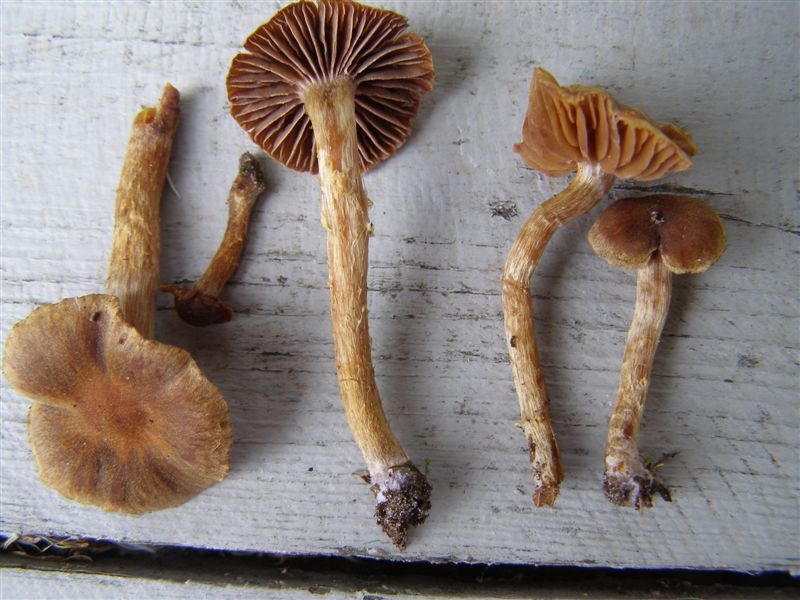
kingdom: Fungi
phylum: Basidiomycota
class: Agaricomycetes
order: Agaricales
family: Cortinariaceae
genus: Cortinarius
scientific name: Cortinarius helvelloides
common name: fjernbladet slørhat
